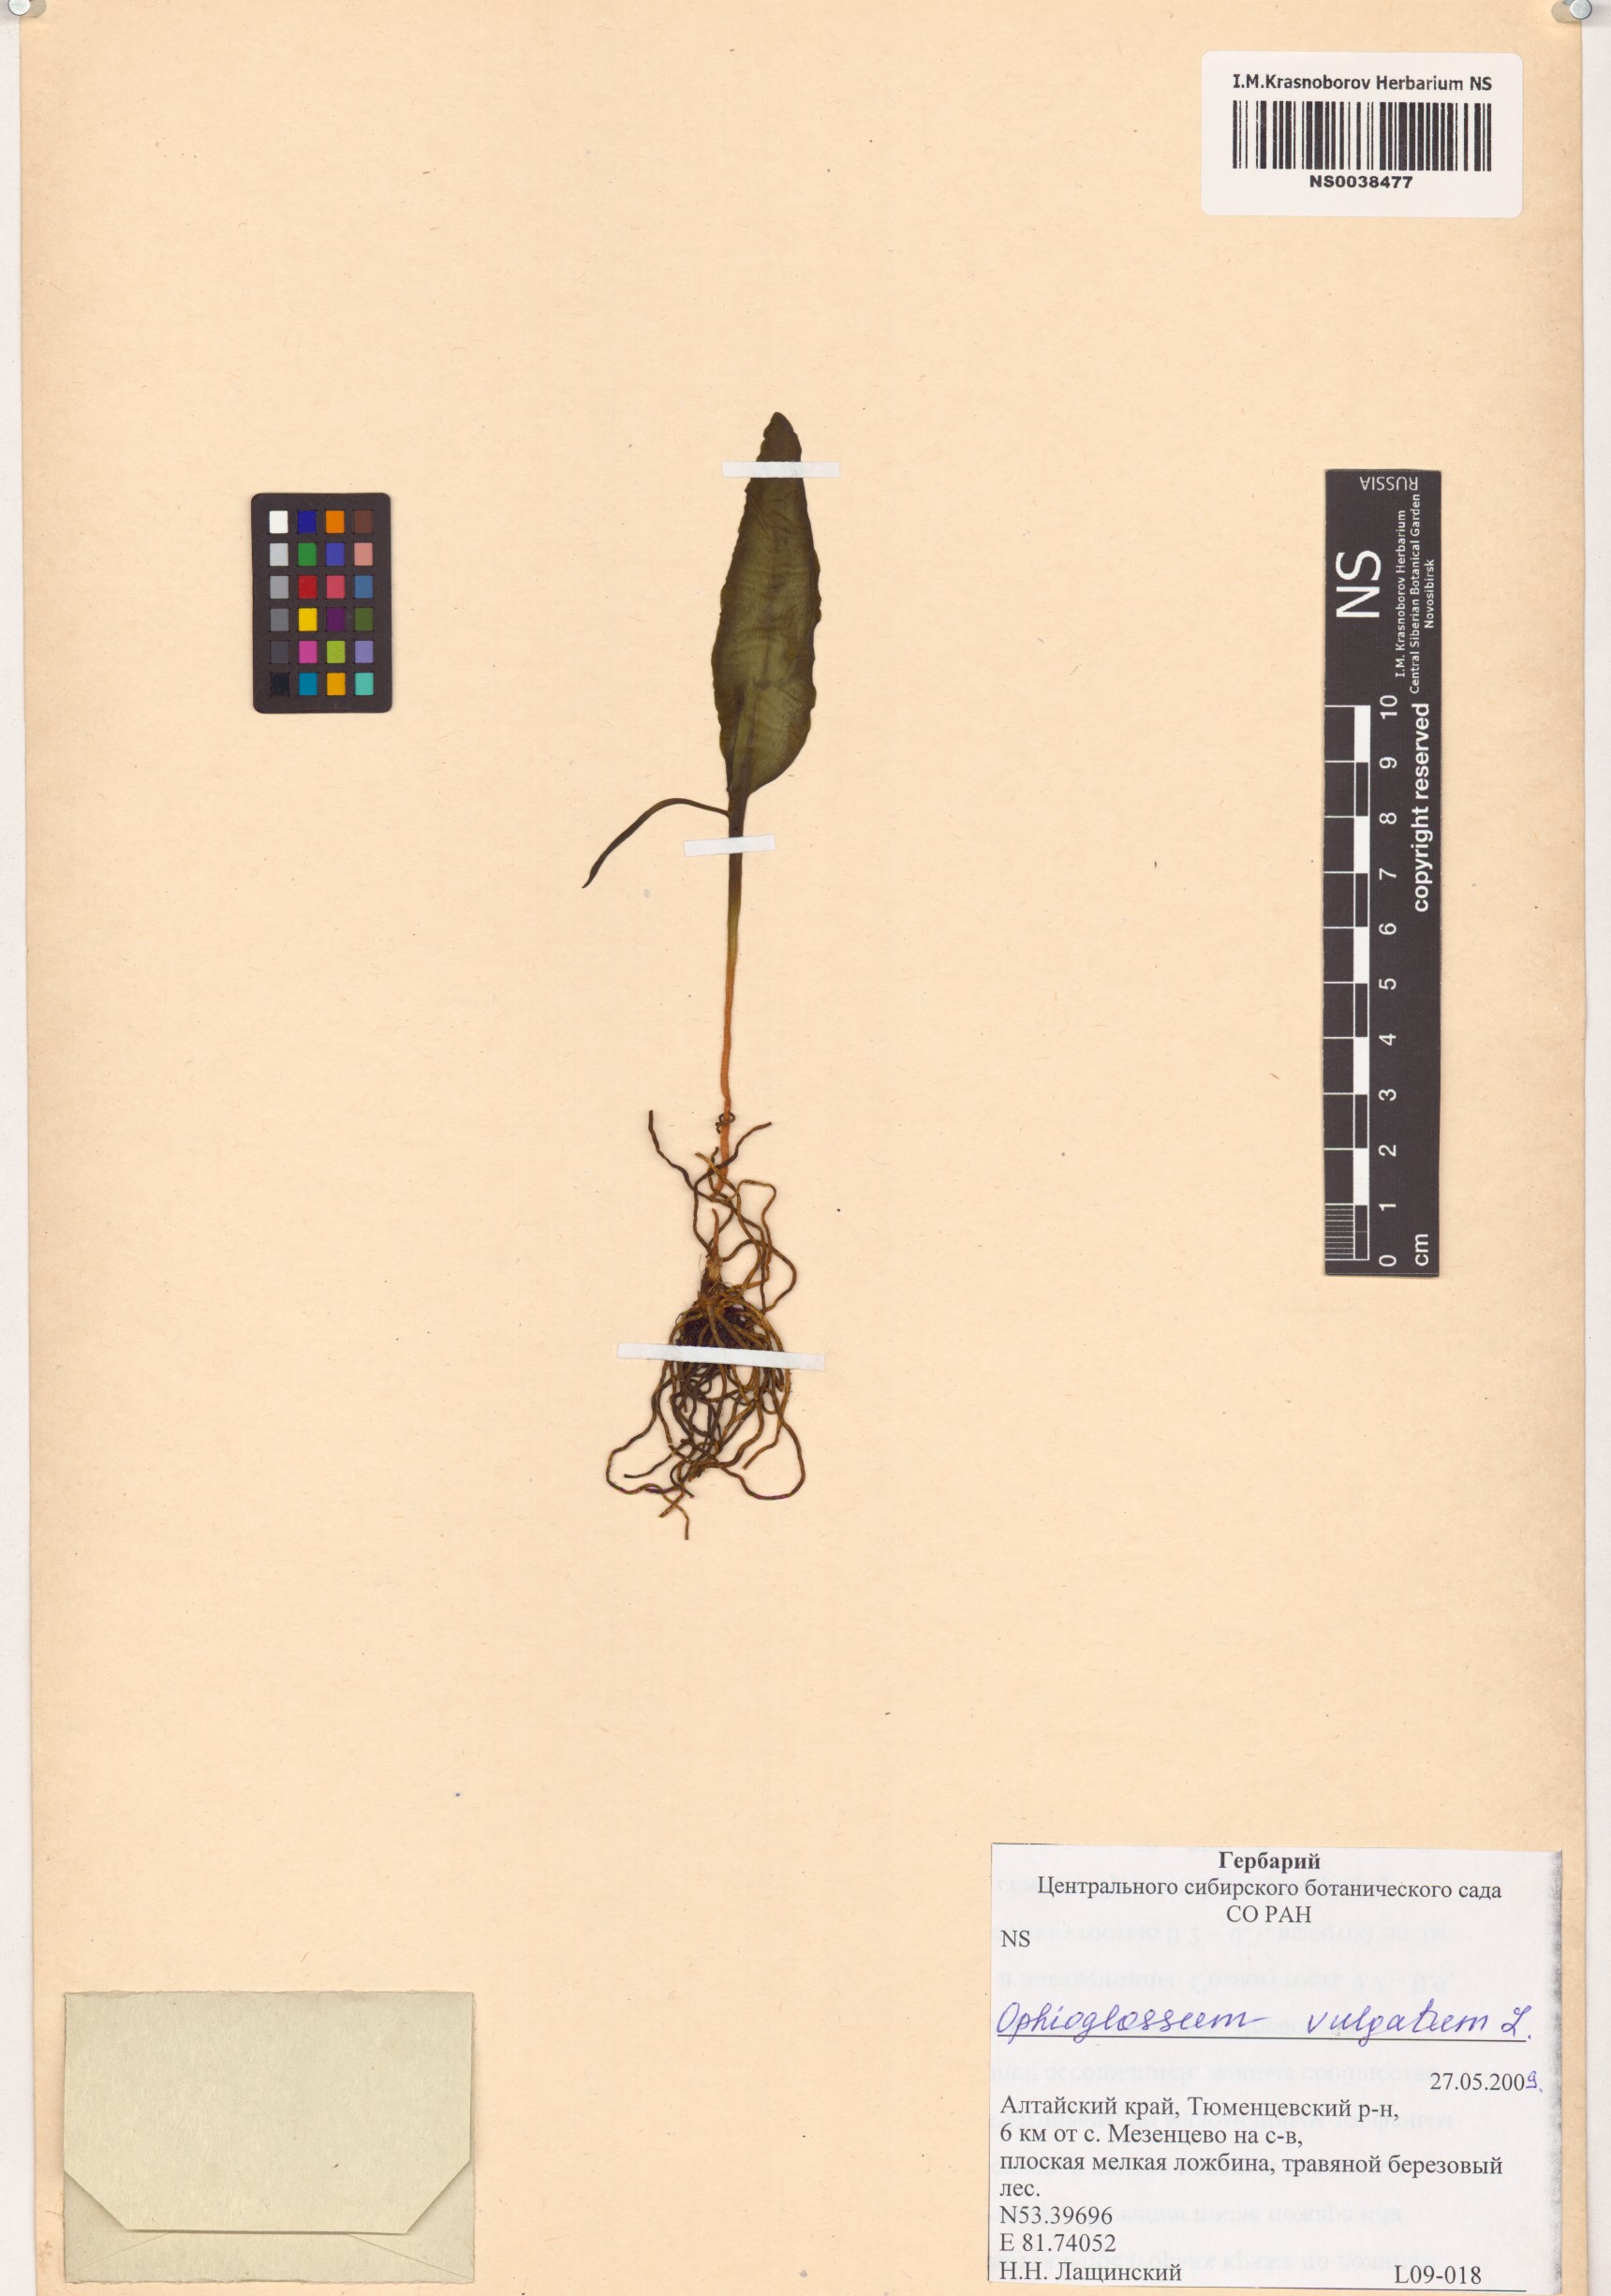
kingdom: Plantae
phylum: Tracheophyta
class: Polypodiopsida
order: Ophioglossales
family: Ophioglossaceae
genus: Ophioglossum
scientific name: Ophioglossum vulgatum
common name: Adder's-tongue
